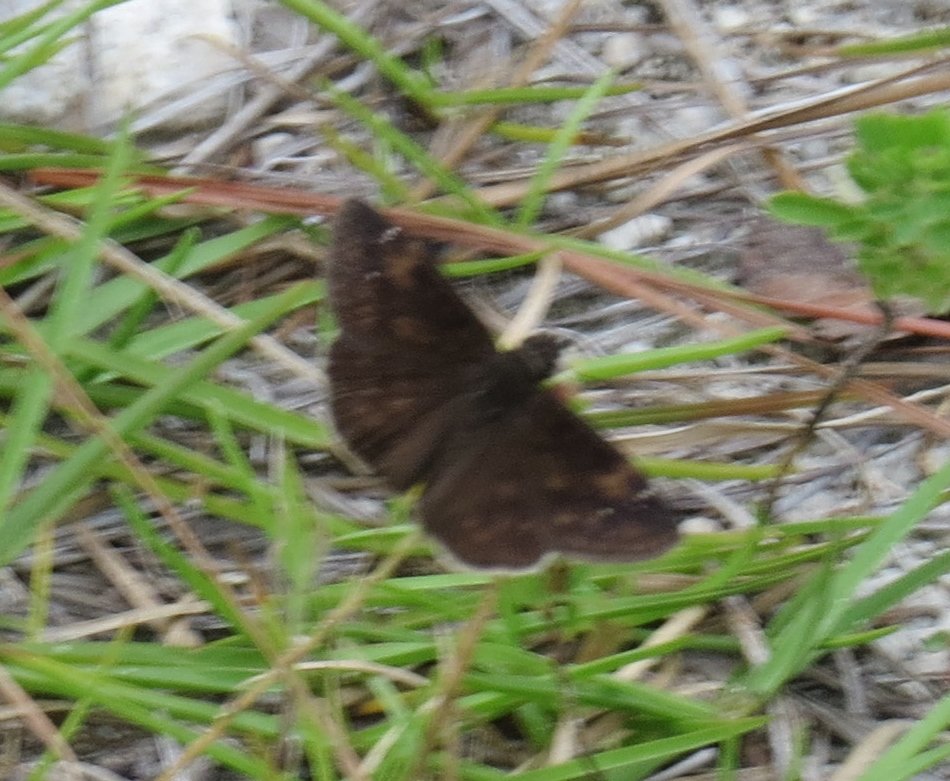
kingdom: Animalia
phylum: Arthropoda
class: Insecta
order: Lepidoptera
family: Hesperiidae
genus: Erynnis
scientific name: Erynnis zarucco
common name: Zarucco Duskywing
